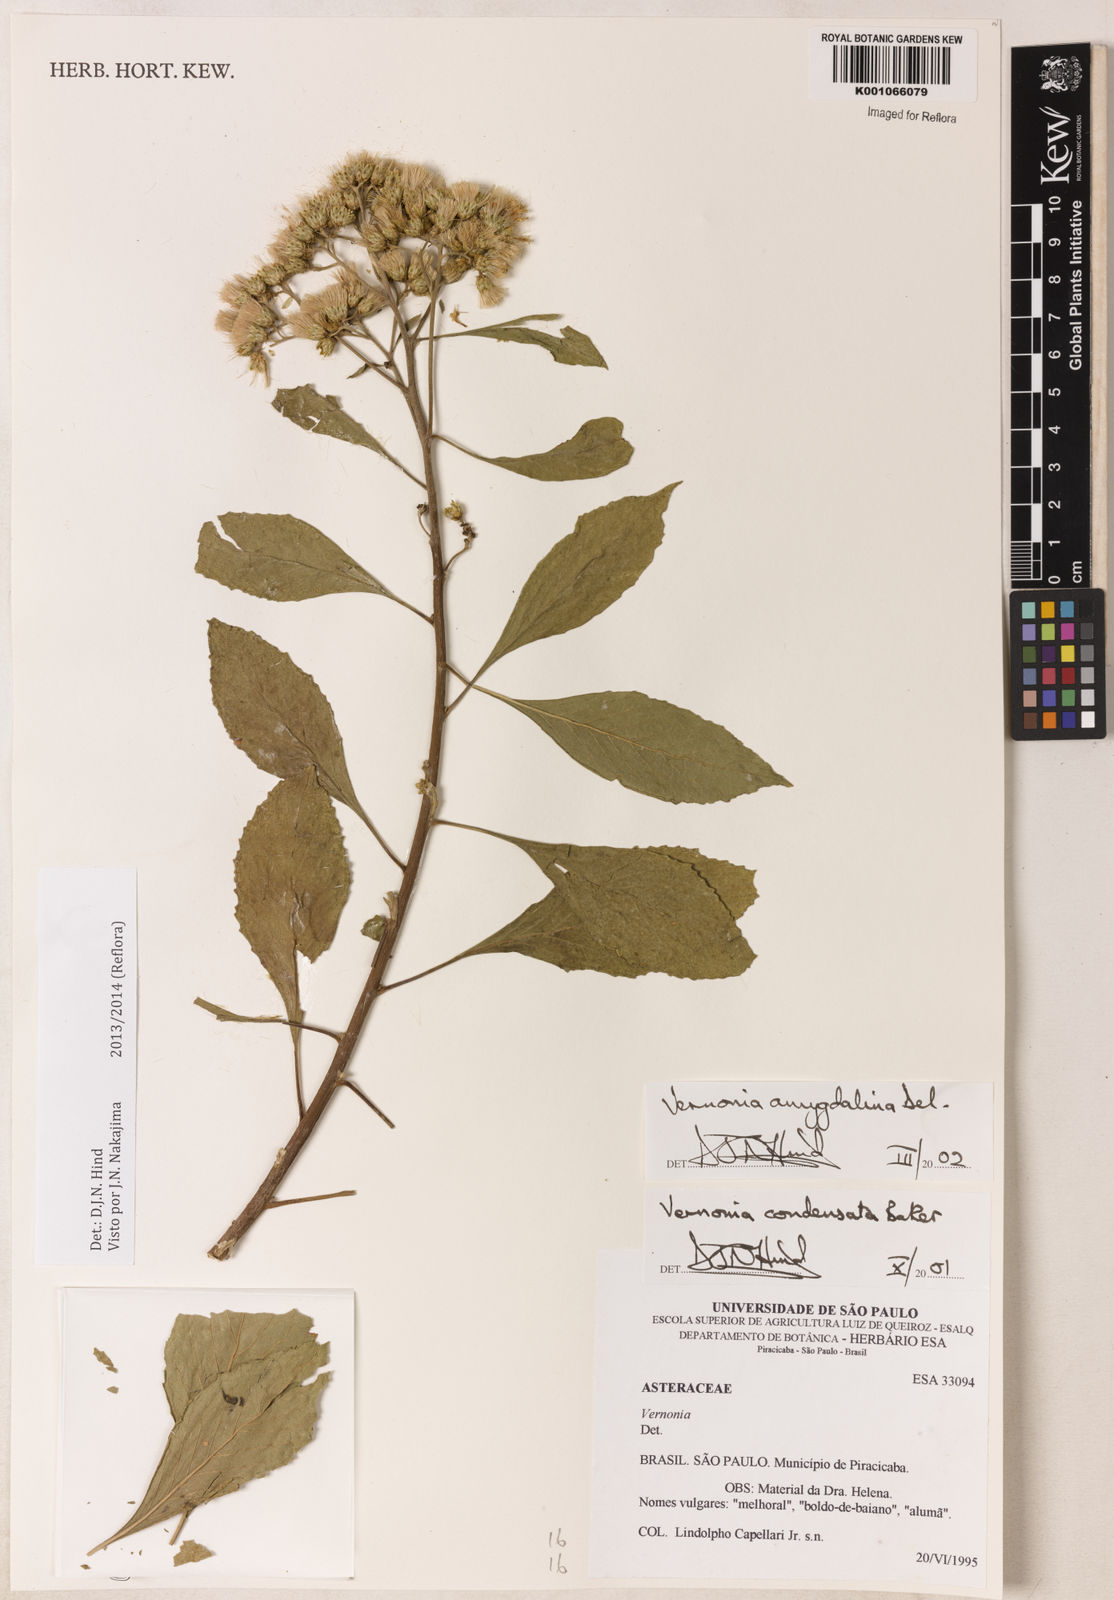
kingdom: Plantae
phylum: Tracheophyta
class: Magnoliopsida
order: Asterales
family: Asteraceae
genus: Gymnanthemum
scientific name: Gymnanthemum amygdalinum
